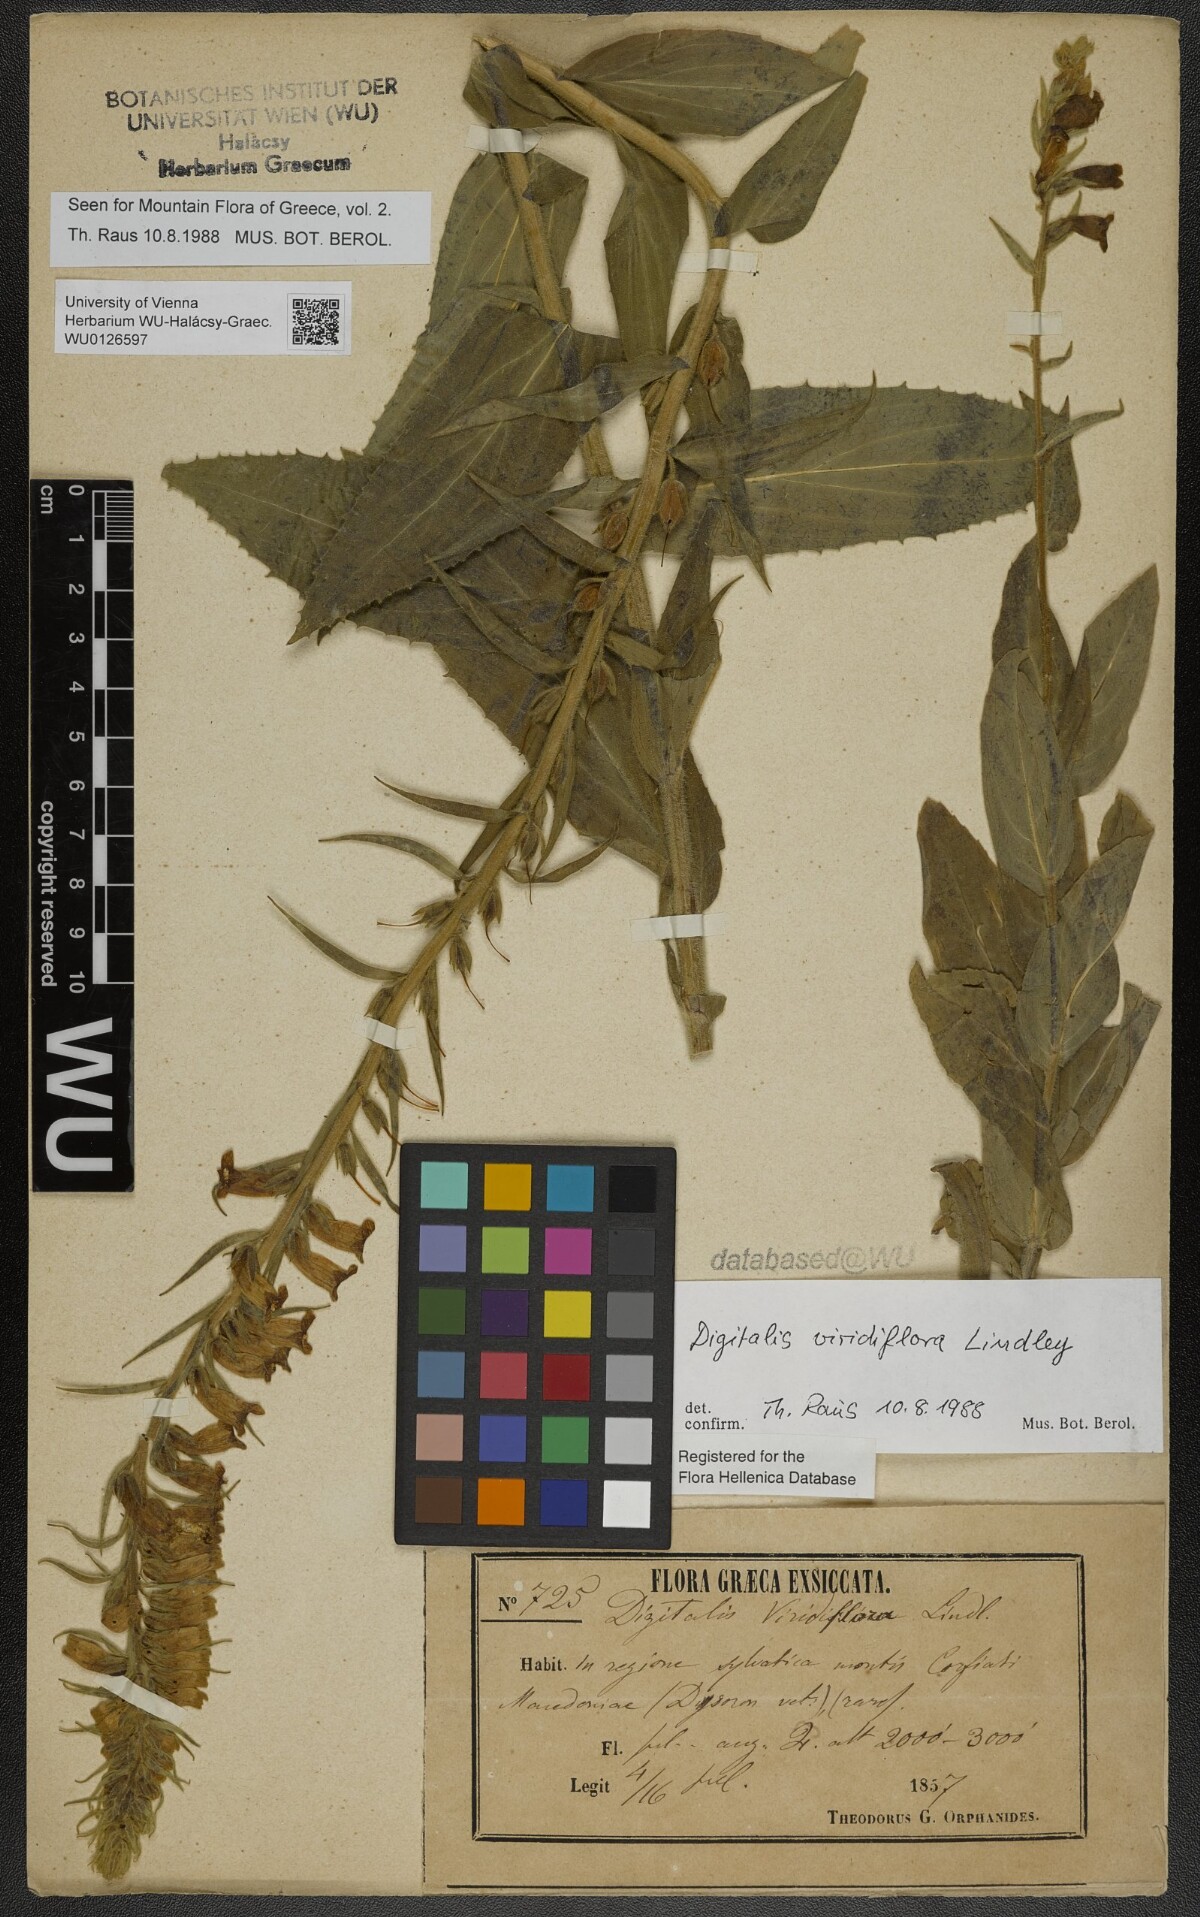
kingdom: Plantae
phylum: Tracheophyta
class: Magnoliopsida
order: Lamiales
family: Plantaginaceae
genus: Digitalis
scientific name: Digitalis viridiflora
